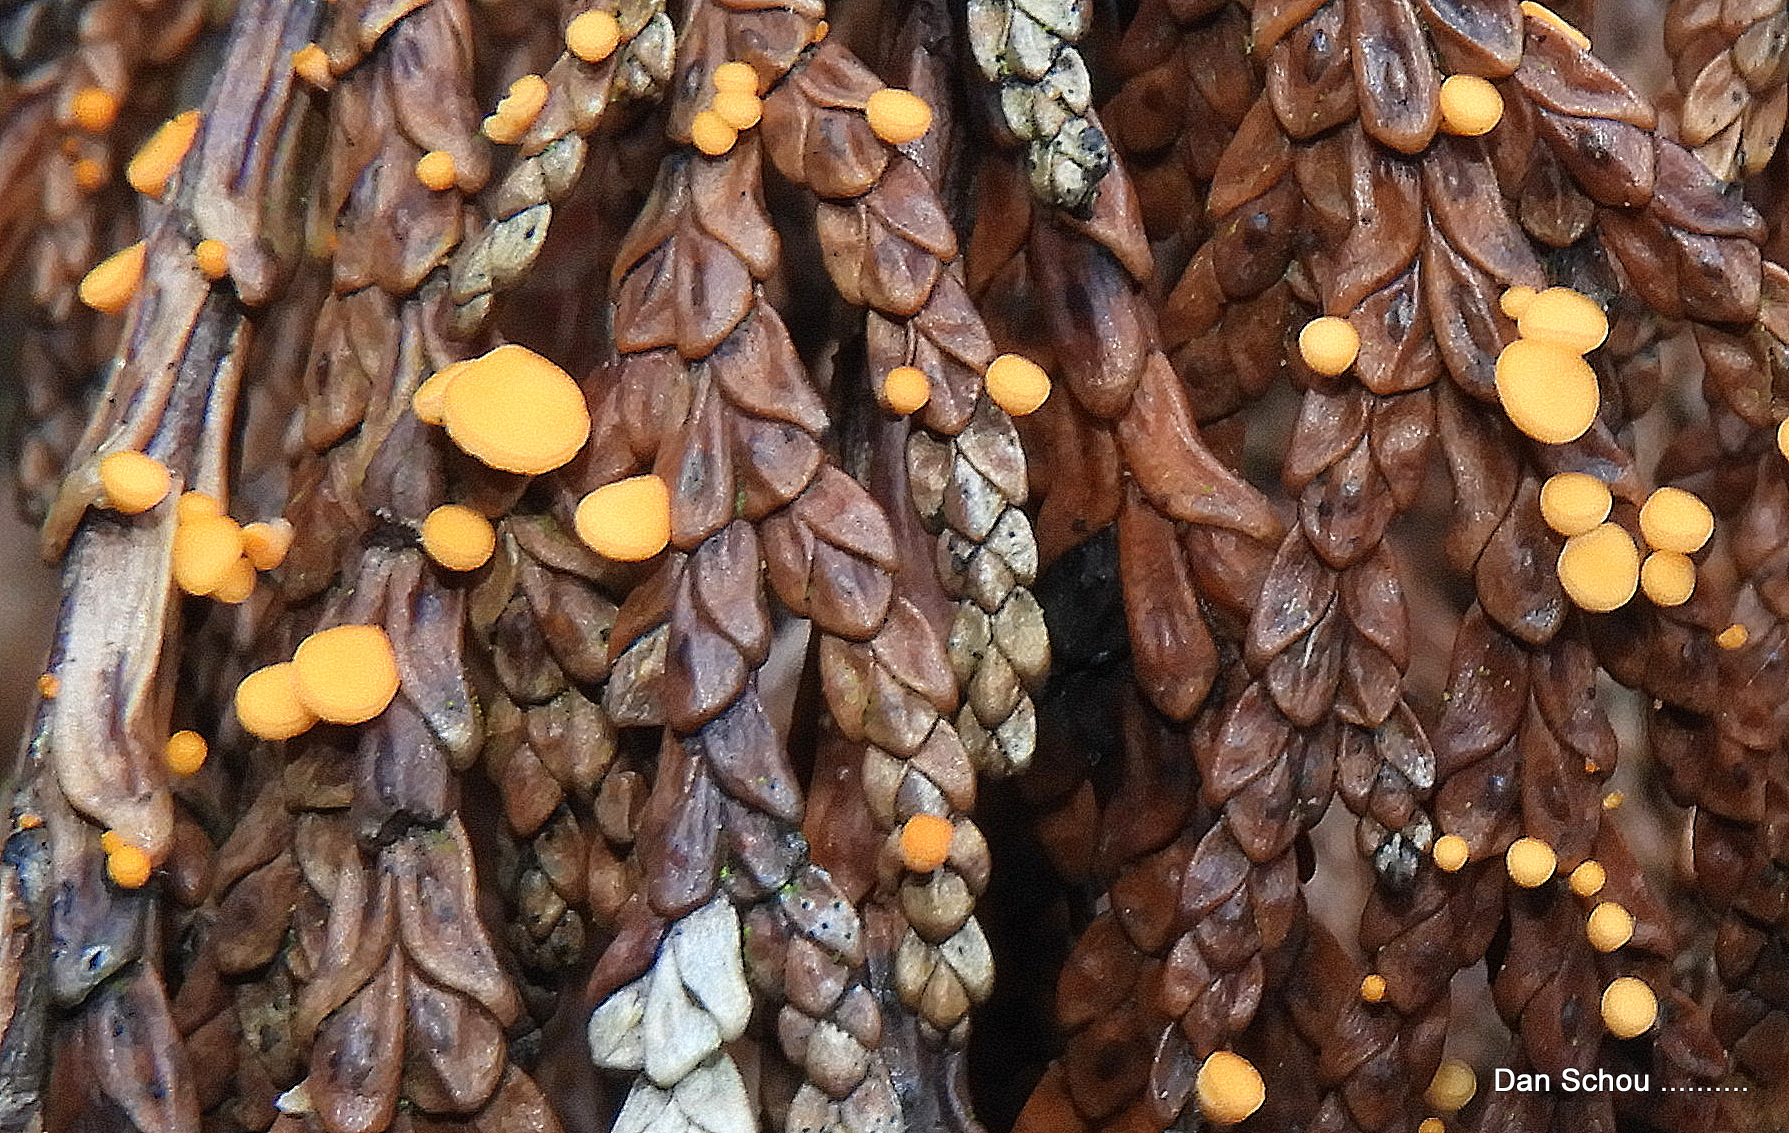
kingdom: Fungi
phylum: Ascomycota
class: Pezizomycetes
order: Pezizales
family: Sarcoscyphaceae
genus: Pithya
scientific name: Pithya cupressina
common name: lille dukatbæger
